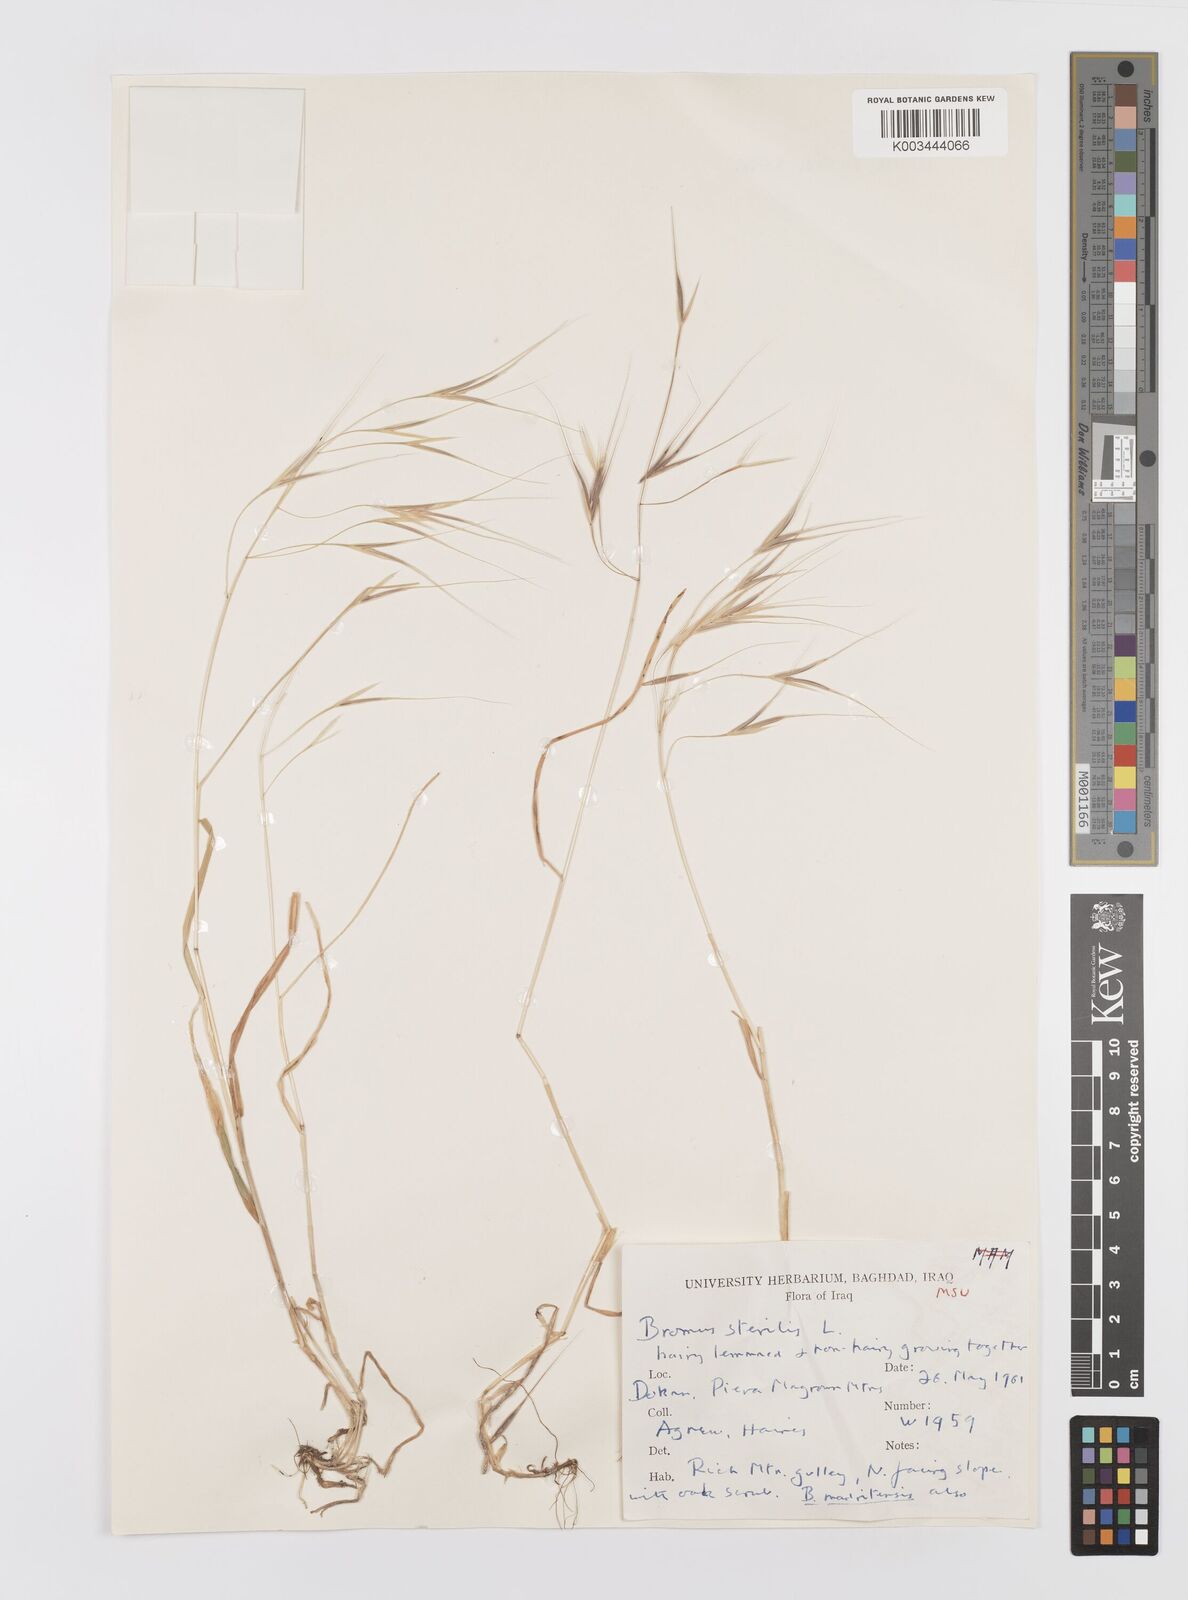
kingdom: Plantae
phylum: Tracheophyta
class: Liliopsida
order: Poales
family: Poaceae
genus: Bromus
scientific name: Bromus sterilis
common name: Poverty brome
